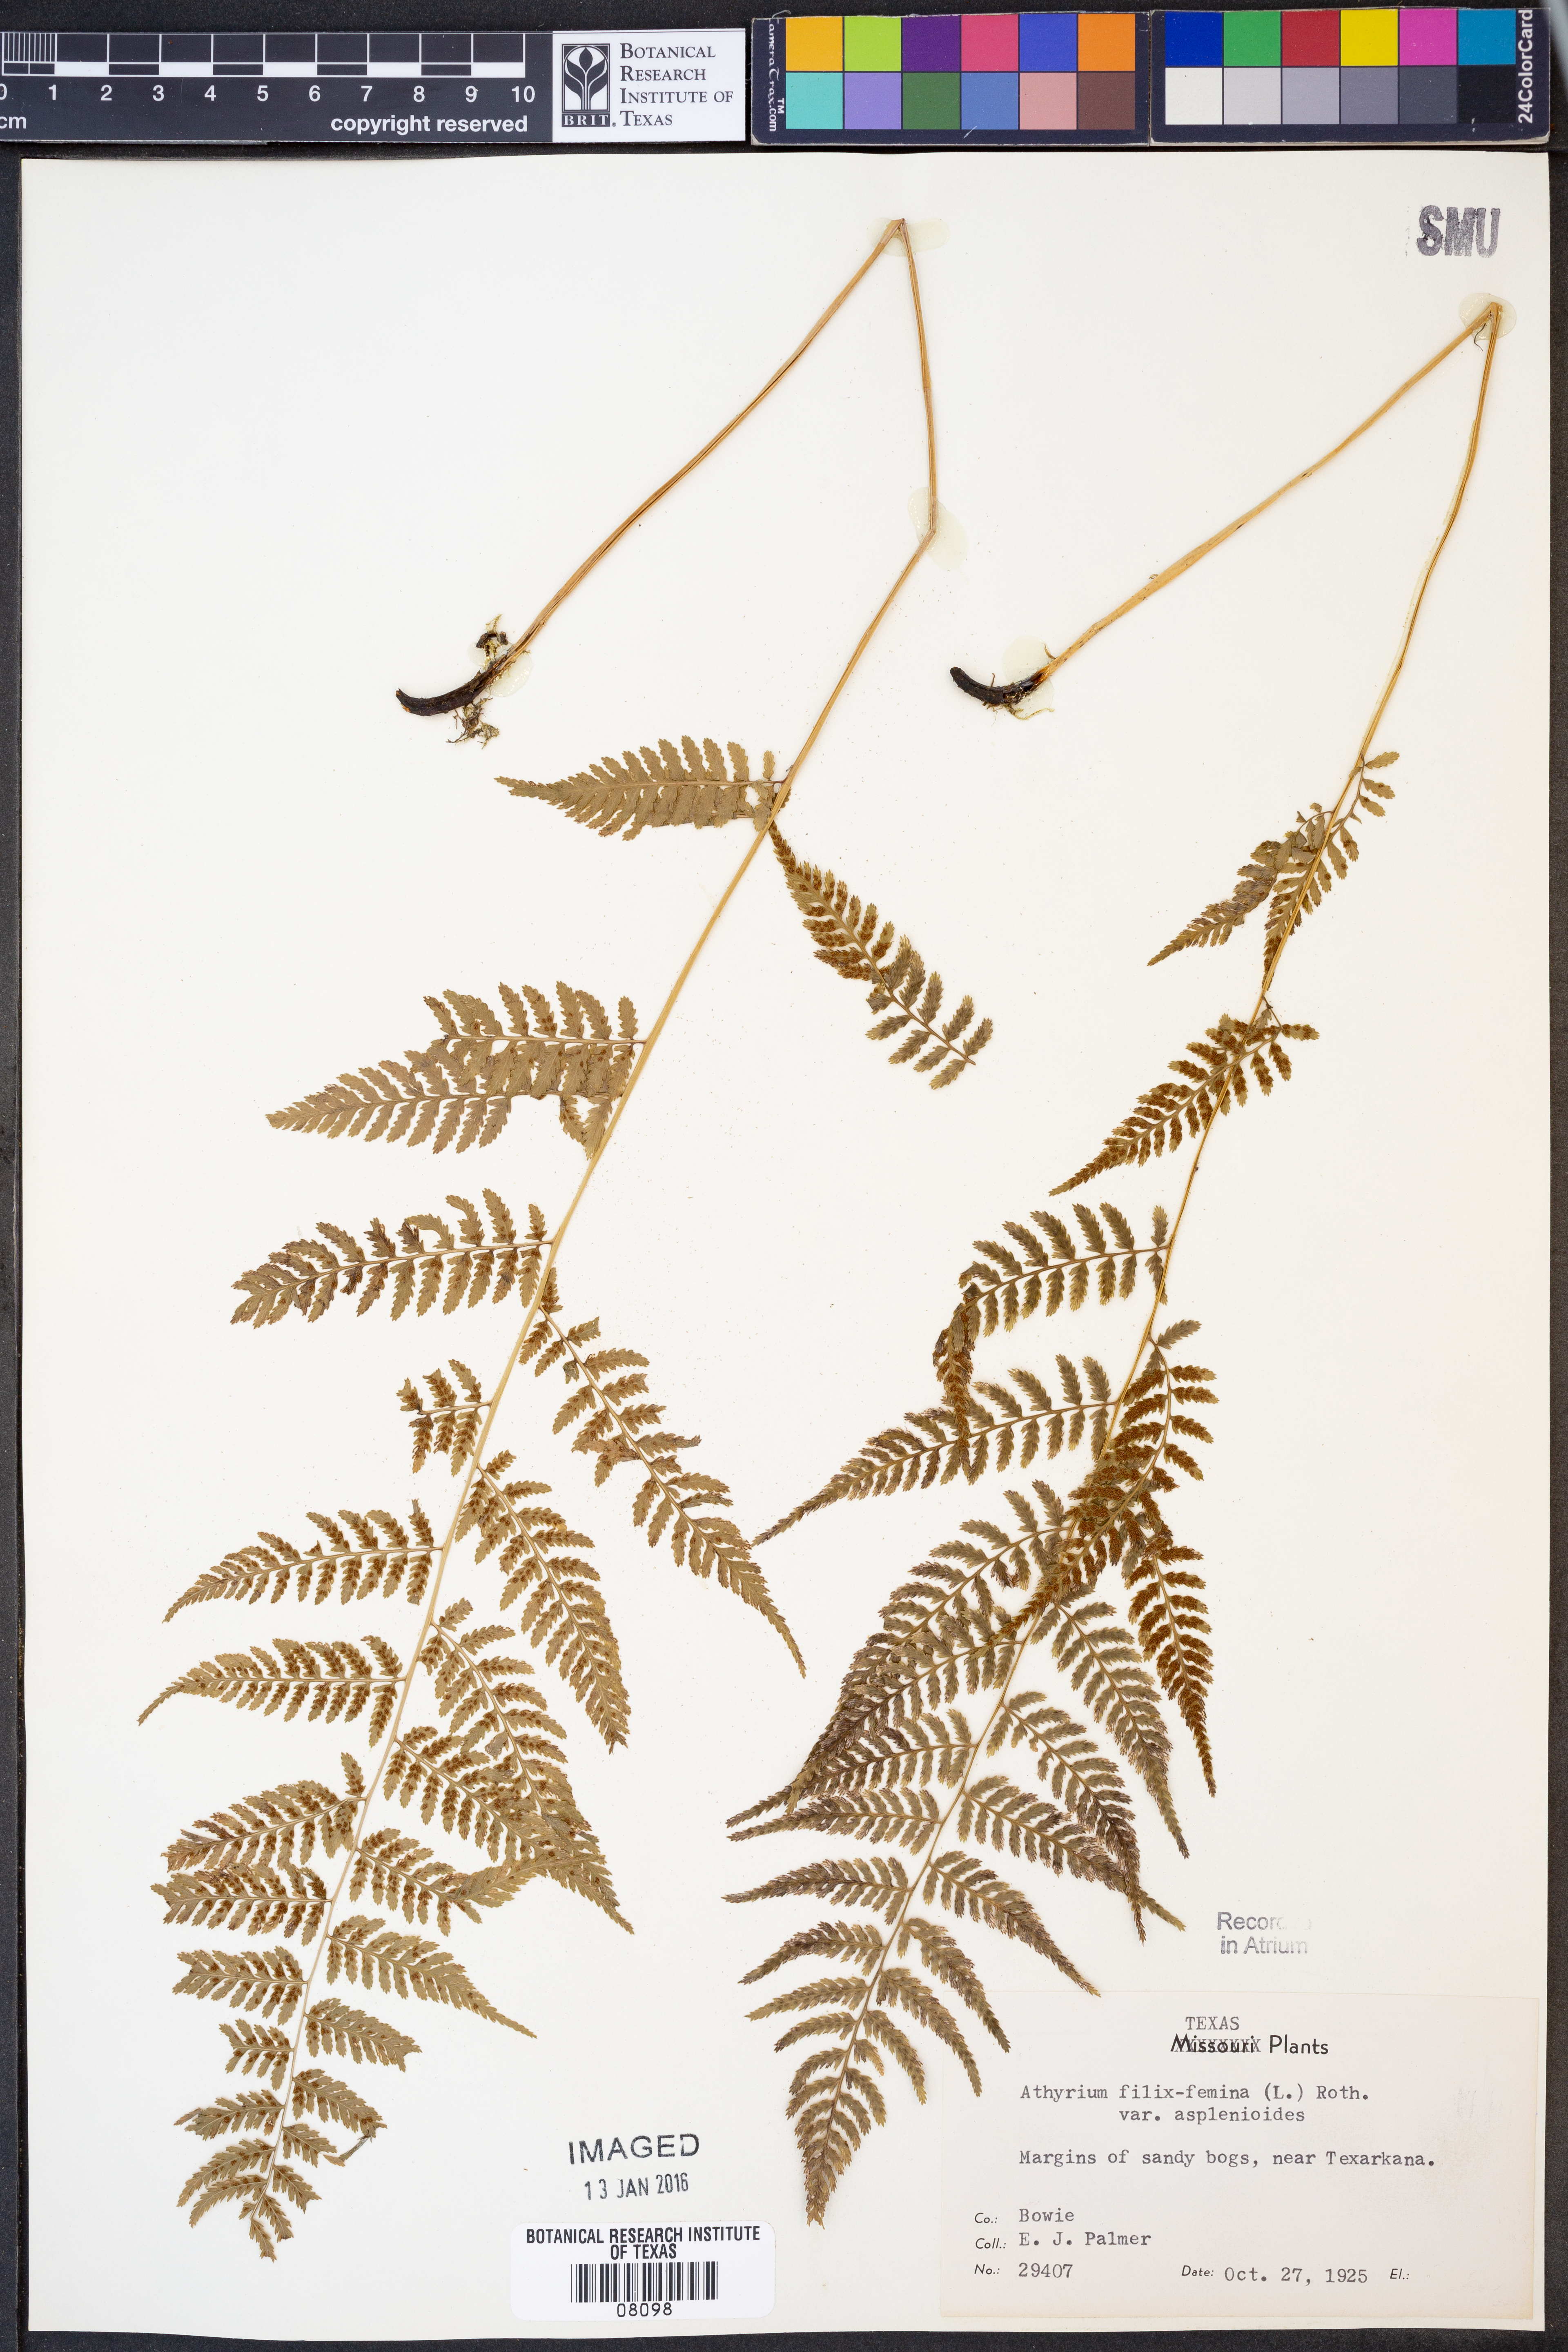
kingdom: Plantae
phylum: Tracheophyta
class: Polypodiopsida
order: Polypodiales
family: Athyriaceae
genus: Athyrium
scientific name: Athyrium asplenioides
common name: Southern lady fern
